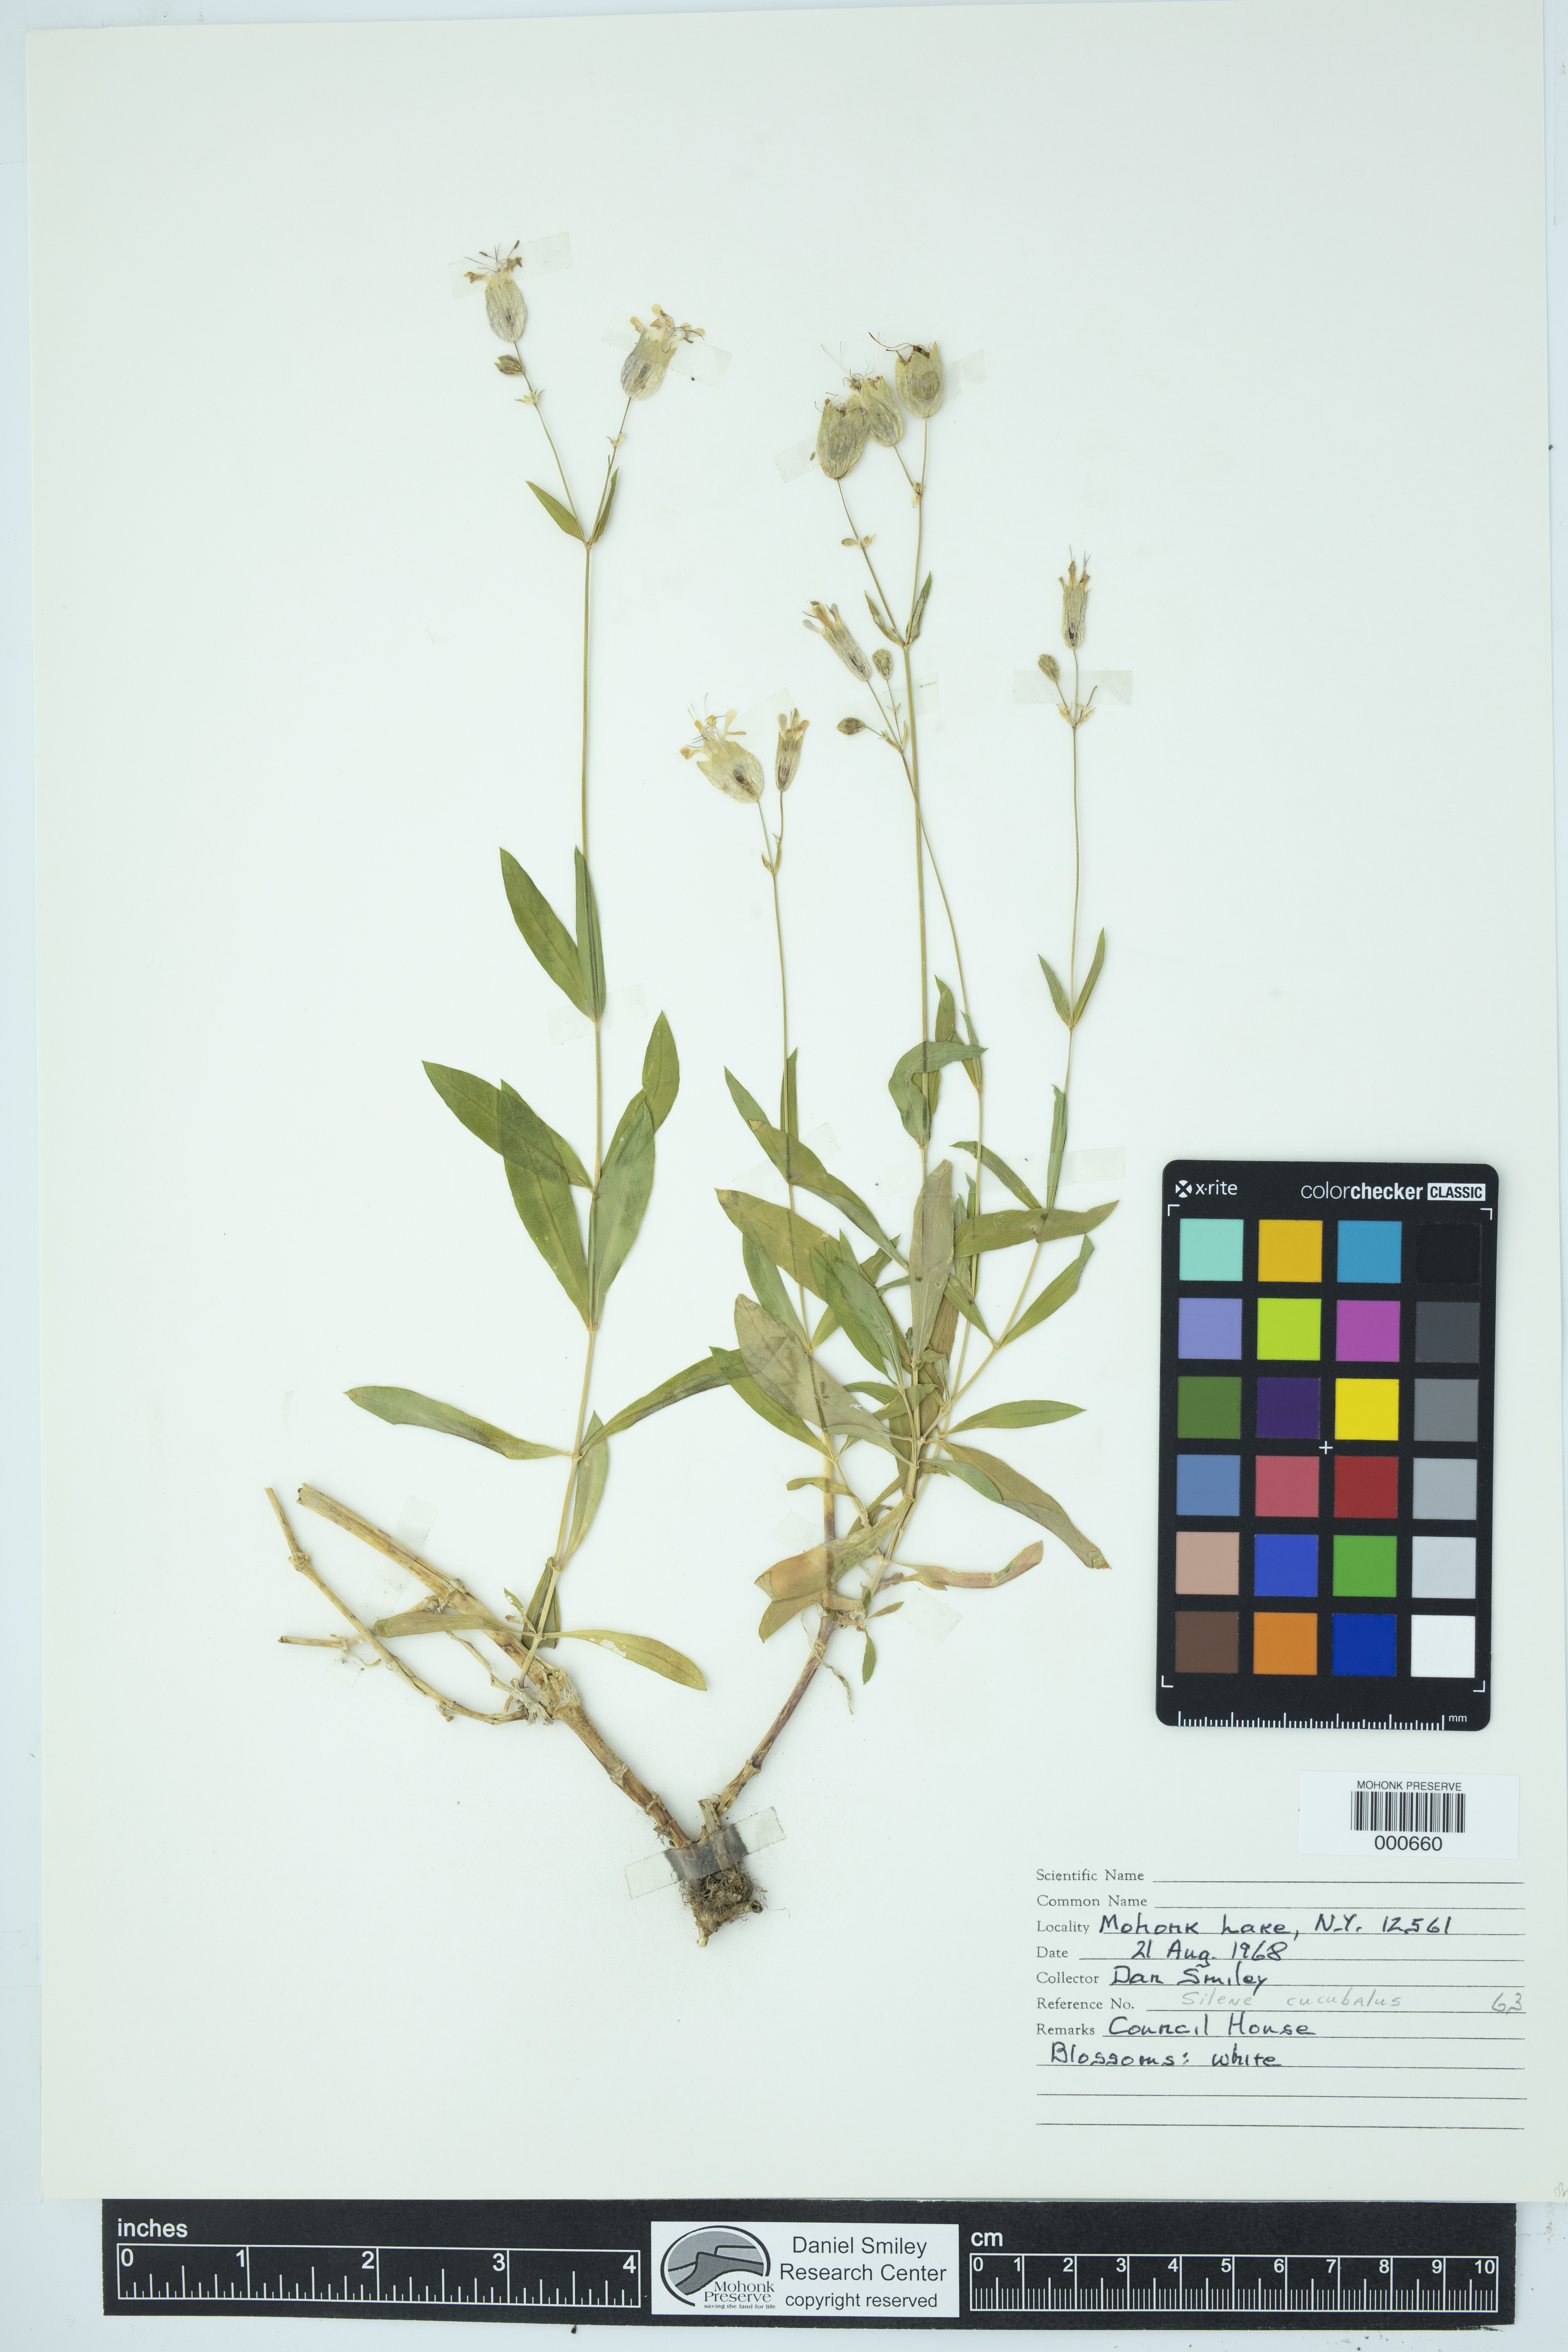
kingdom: Plantae
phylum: Tracheophyta
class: Magnoliopsida
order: Caryophyllales
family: Caryophyllaceae
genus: Silene
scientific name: Silene vulgaris
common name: Bladder campion
